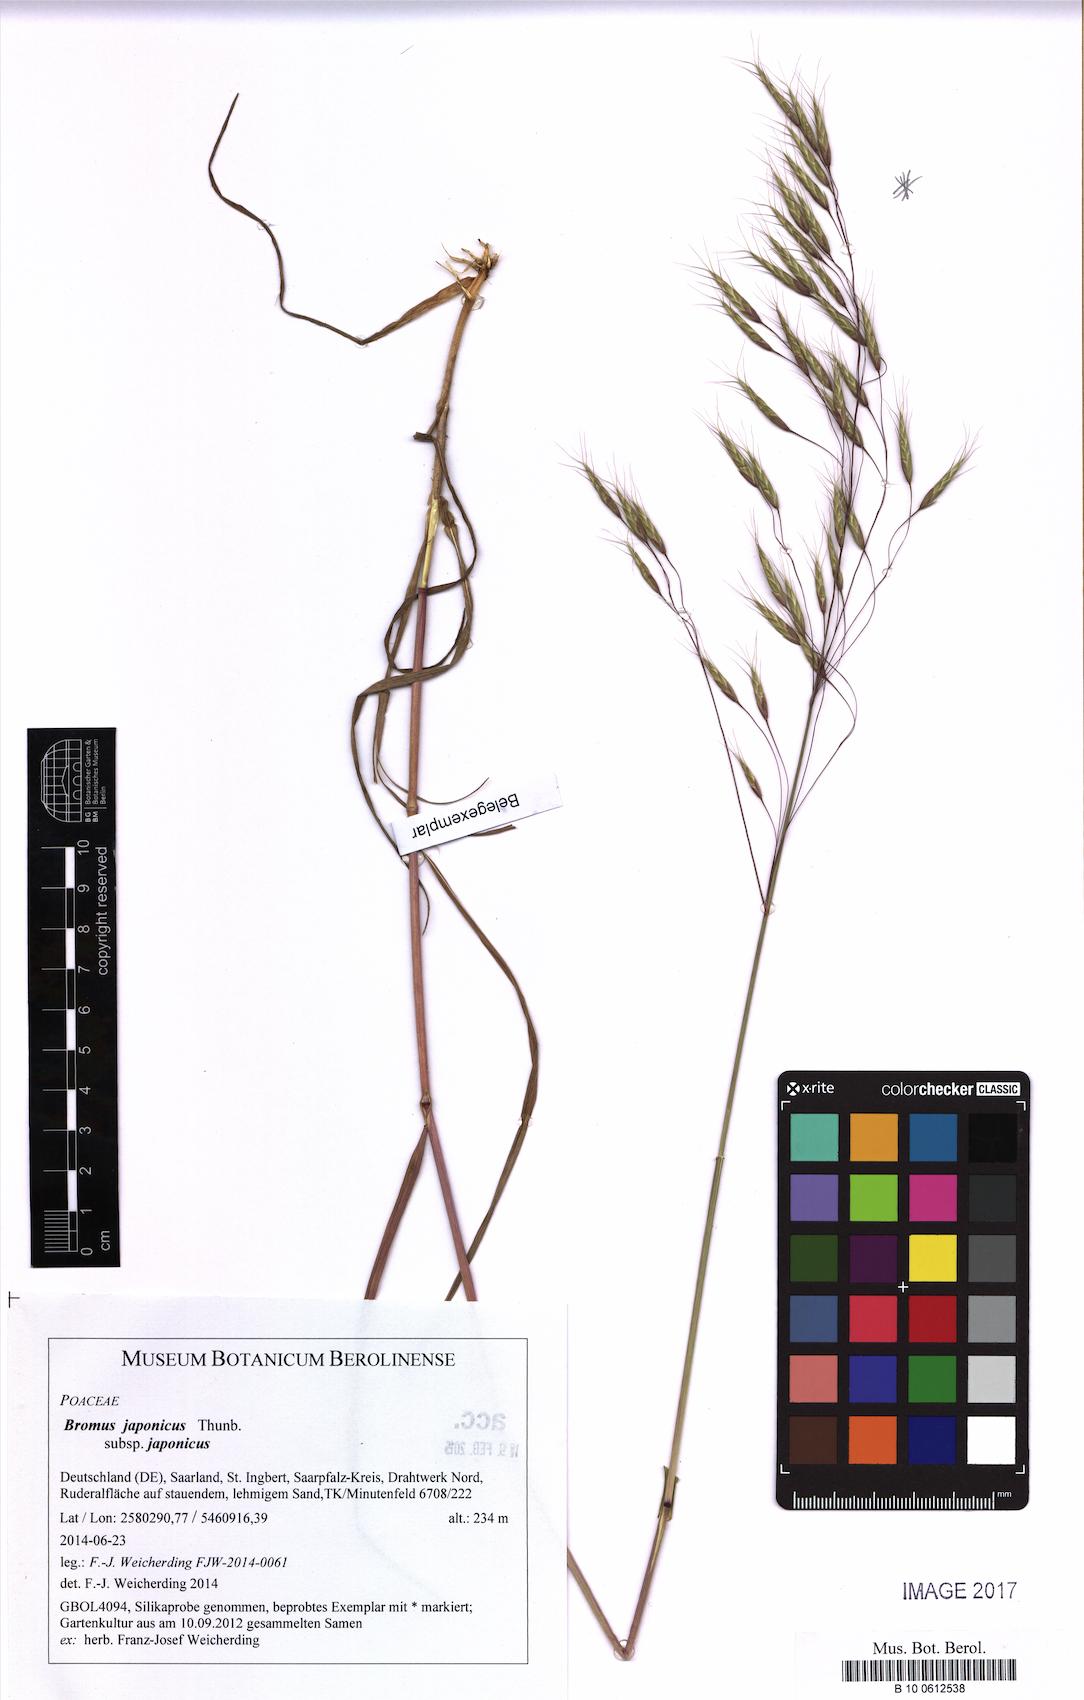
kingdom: Plantae
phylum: Tracheophyta
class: Liliopsida
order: Poales
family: Poaceae
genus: Bromus
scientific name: Bromus japonicus
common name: Japanese brome
